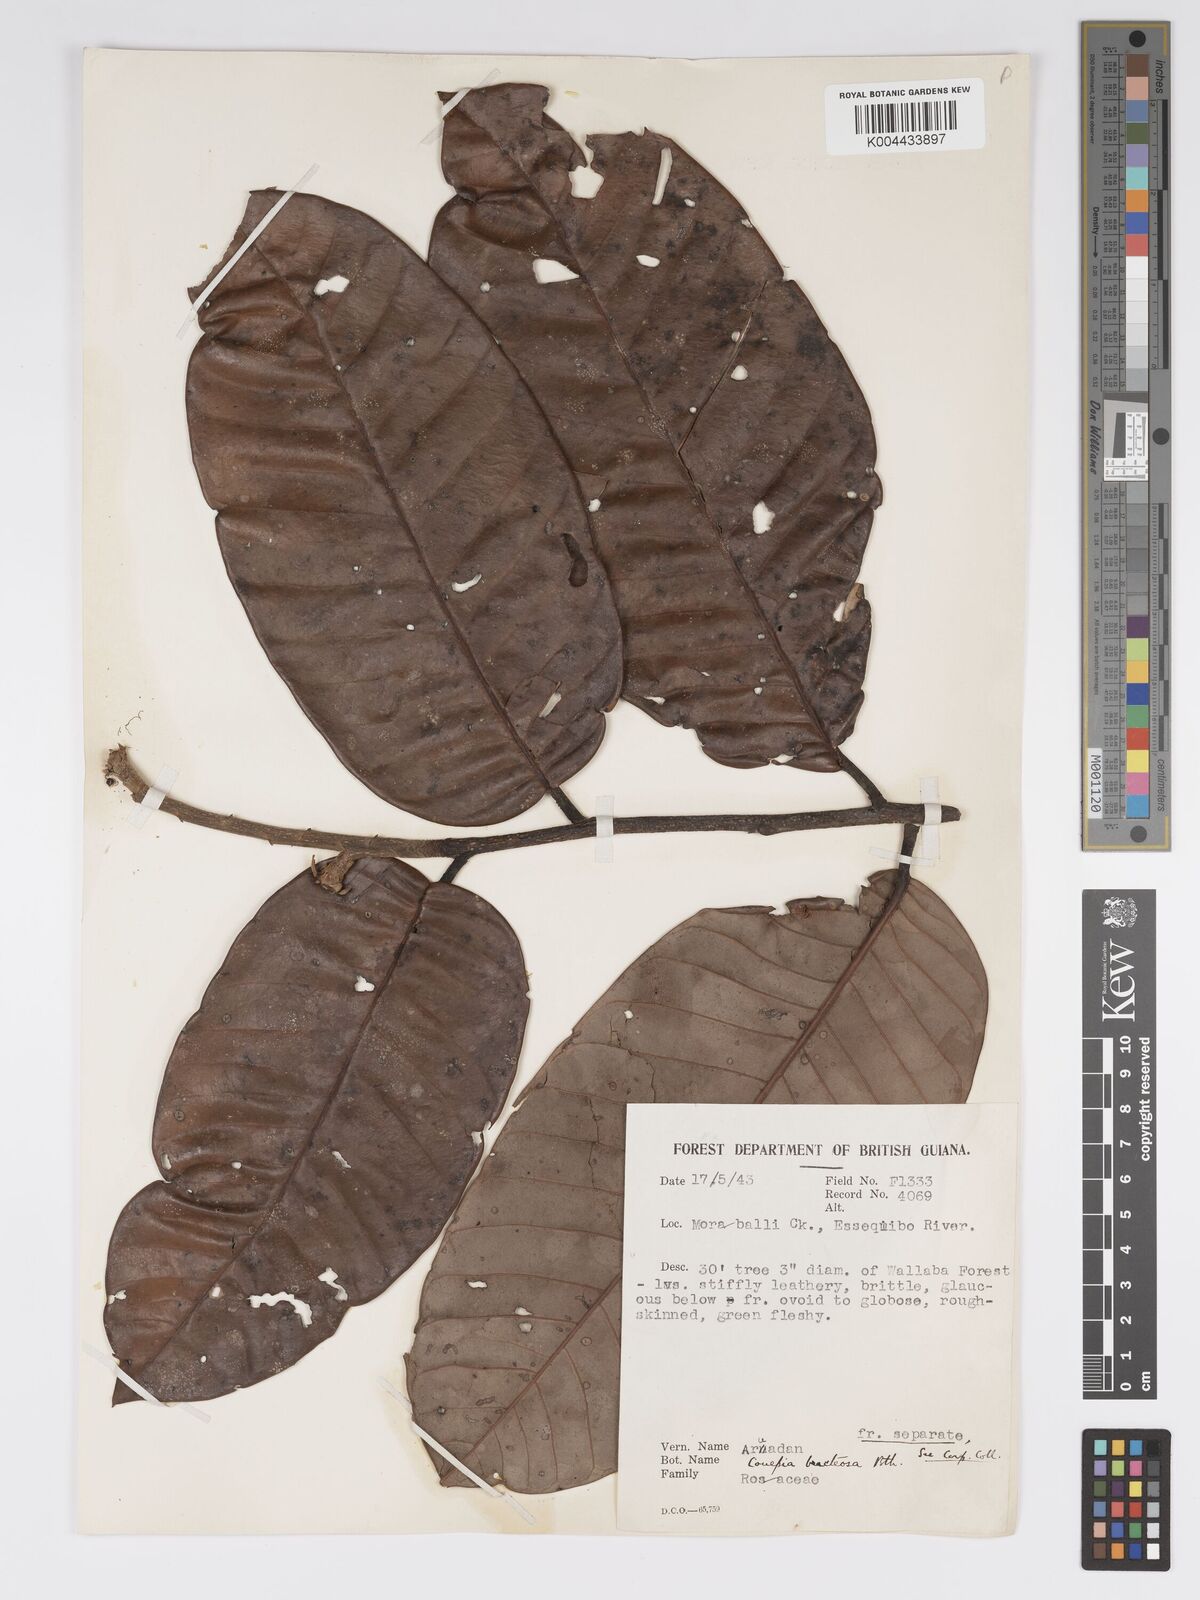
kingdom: Plantae
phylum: Tracheophyta
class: Magnoliopsida
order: Malpighiales
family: Chrysobalanaceae
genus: Couepia
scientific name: Couepia bracteosa
